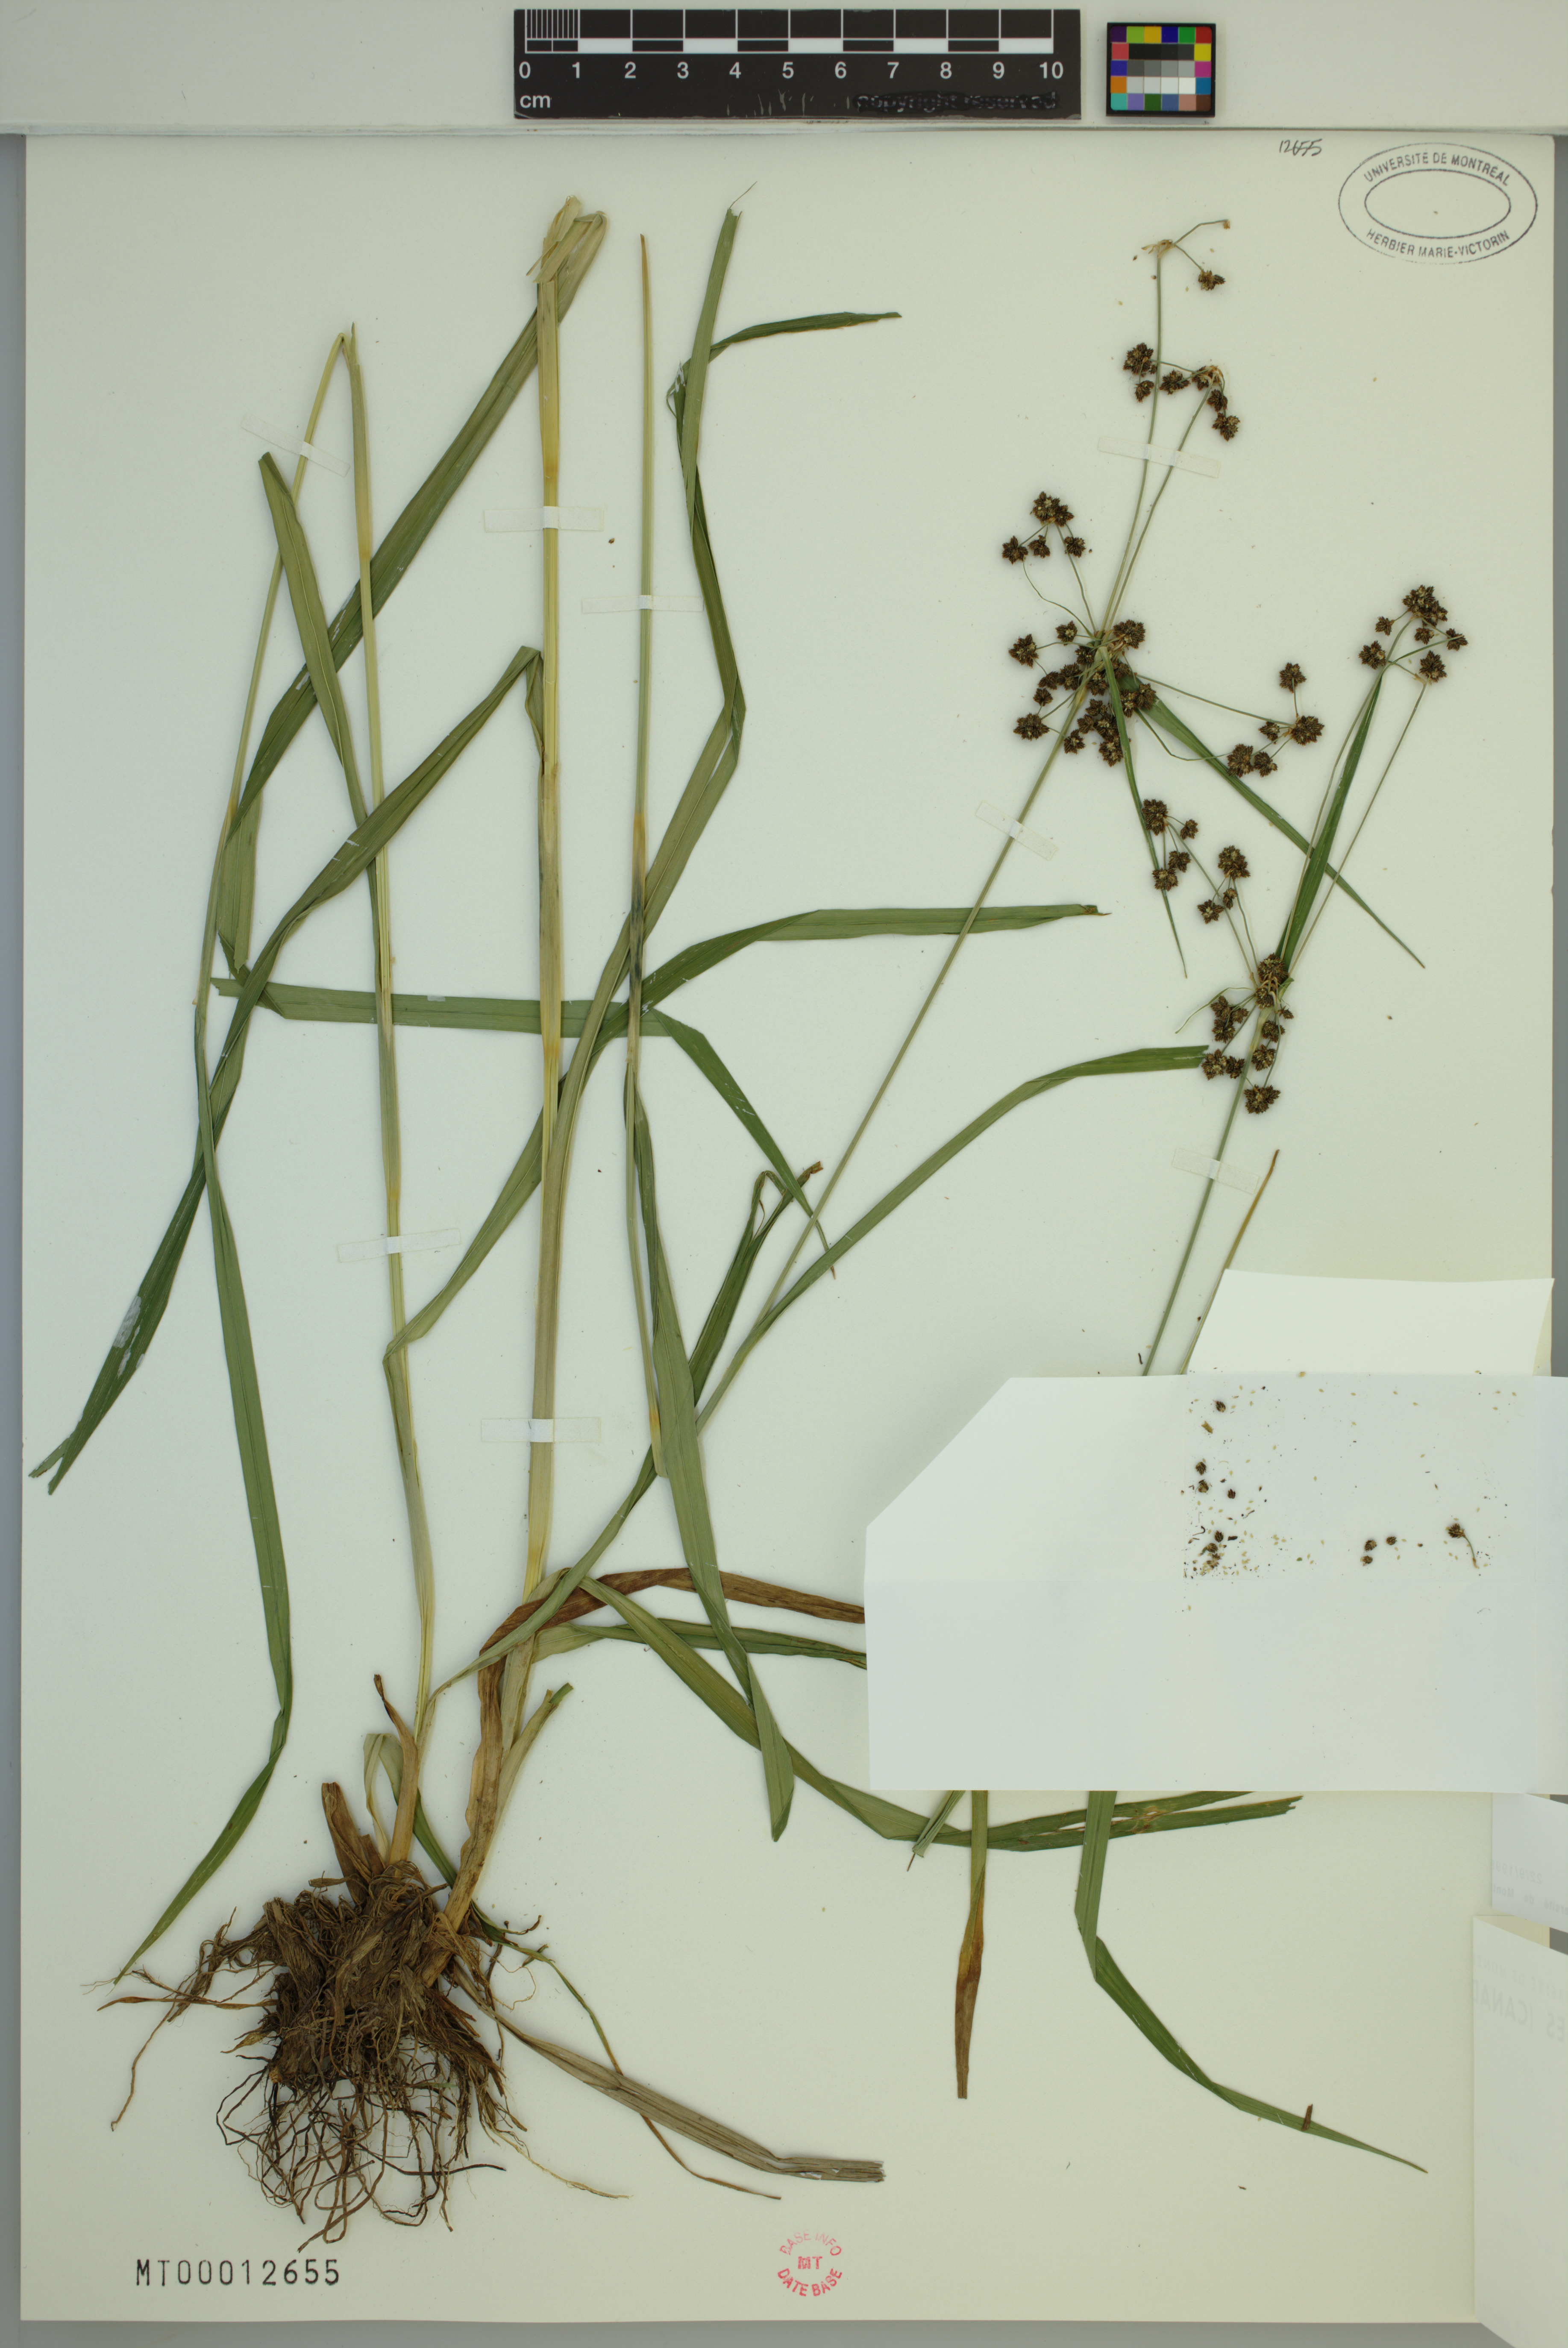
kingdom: Plantae
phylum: Tracheophyta
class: Liliopsida
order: Poales
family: Cyperaceae
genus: Scirpus
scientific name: Scirpus hattorianus
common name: Early dark-green bulrush
